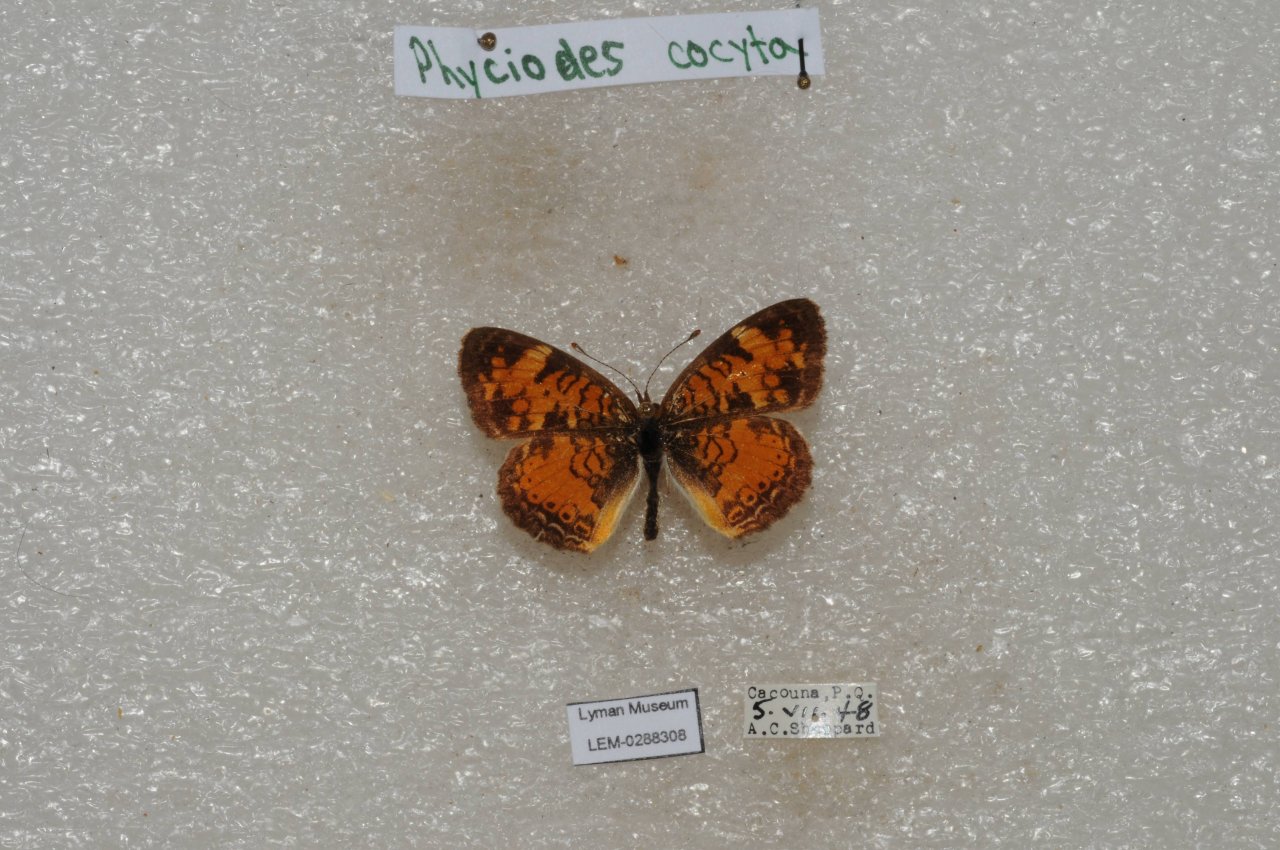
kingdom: Animalia
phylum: Arthropoda
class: Insecta
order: Lepidoptera
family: Nymphalidae
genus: Phyciodes
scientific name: Phyciodes tharos
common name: Northern Crescent
